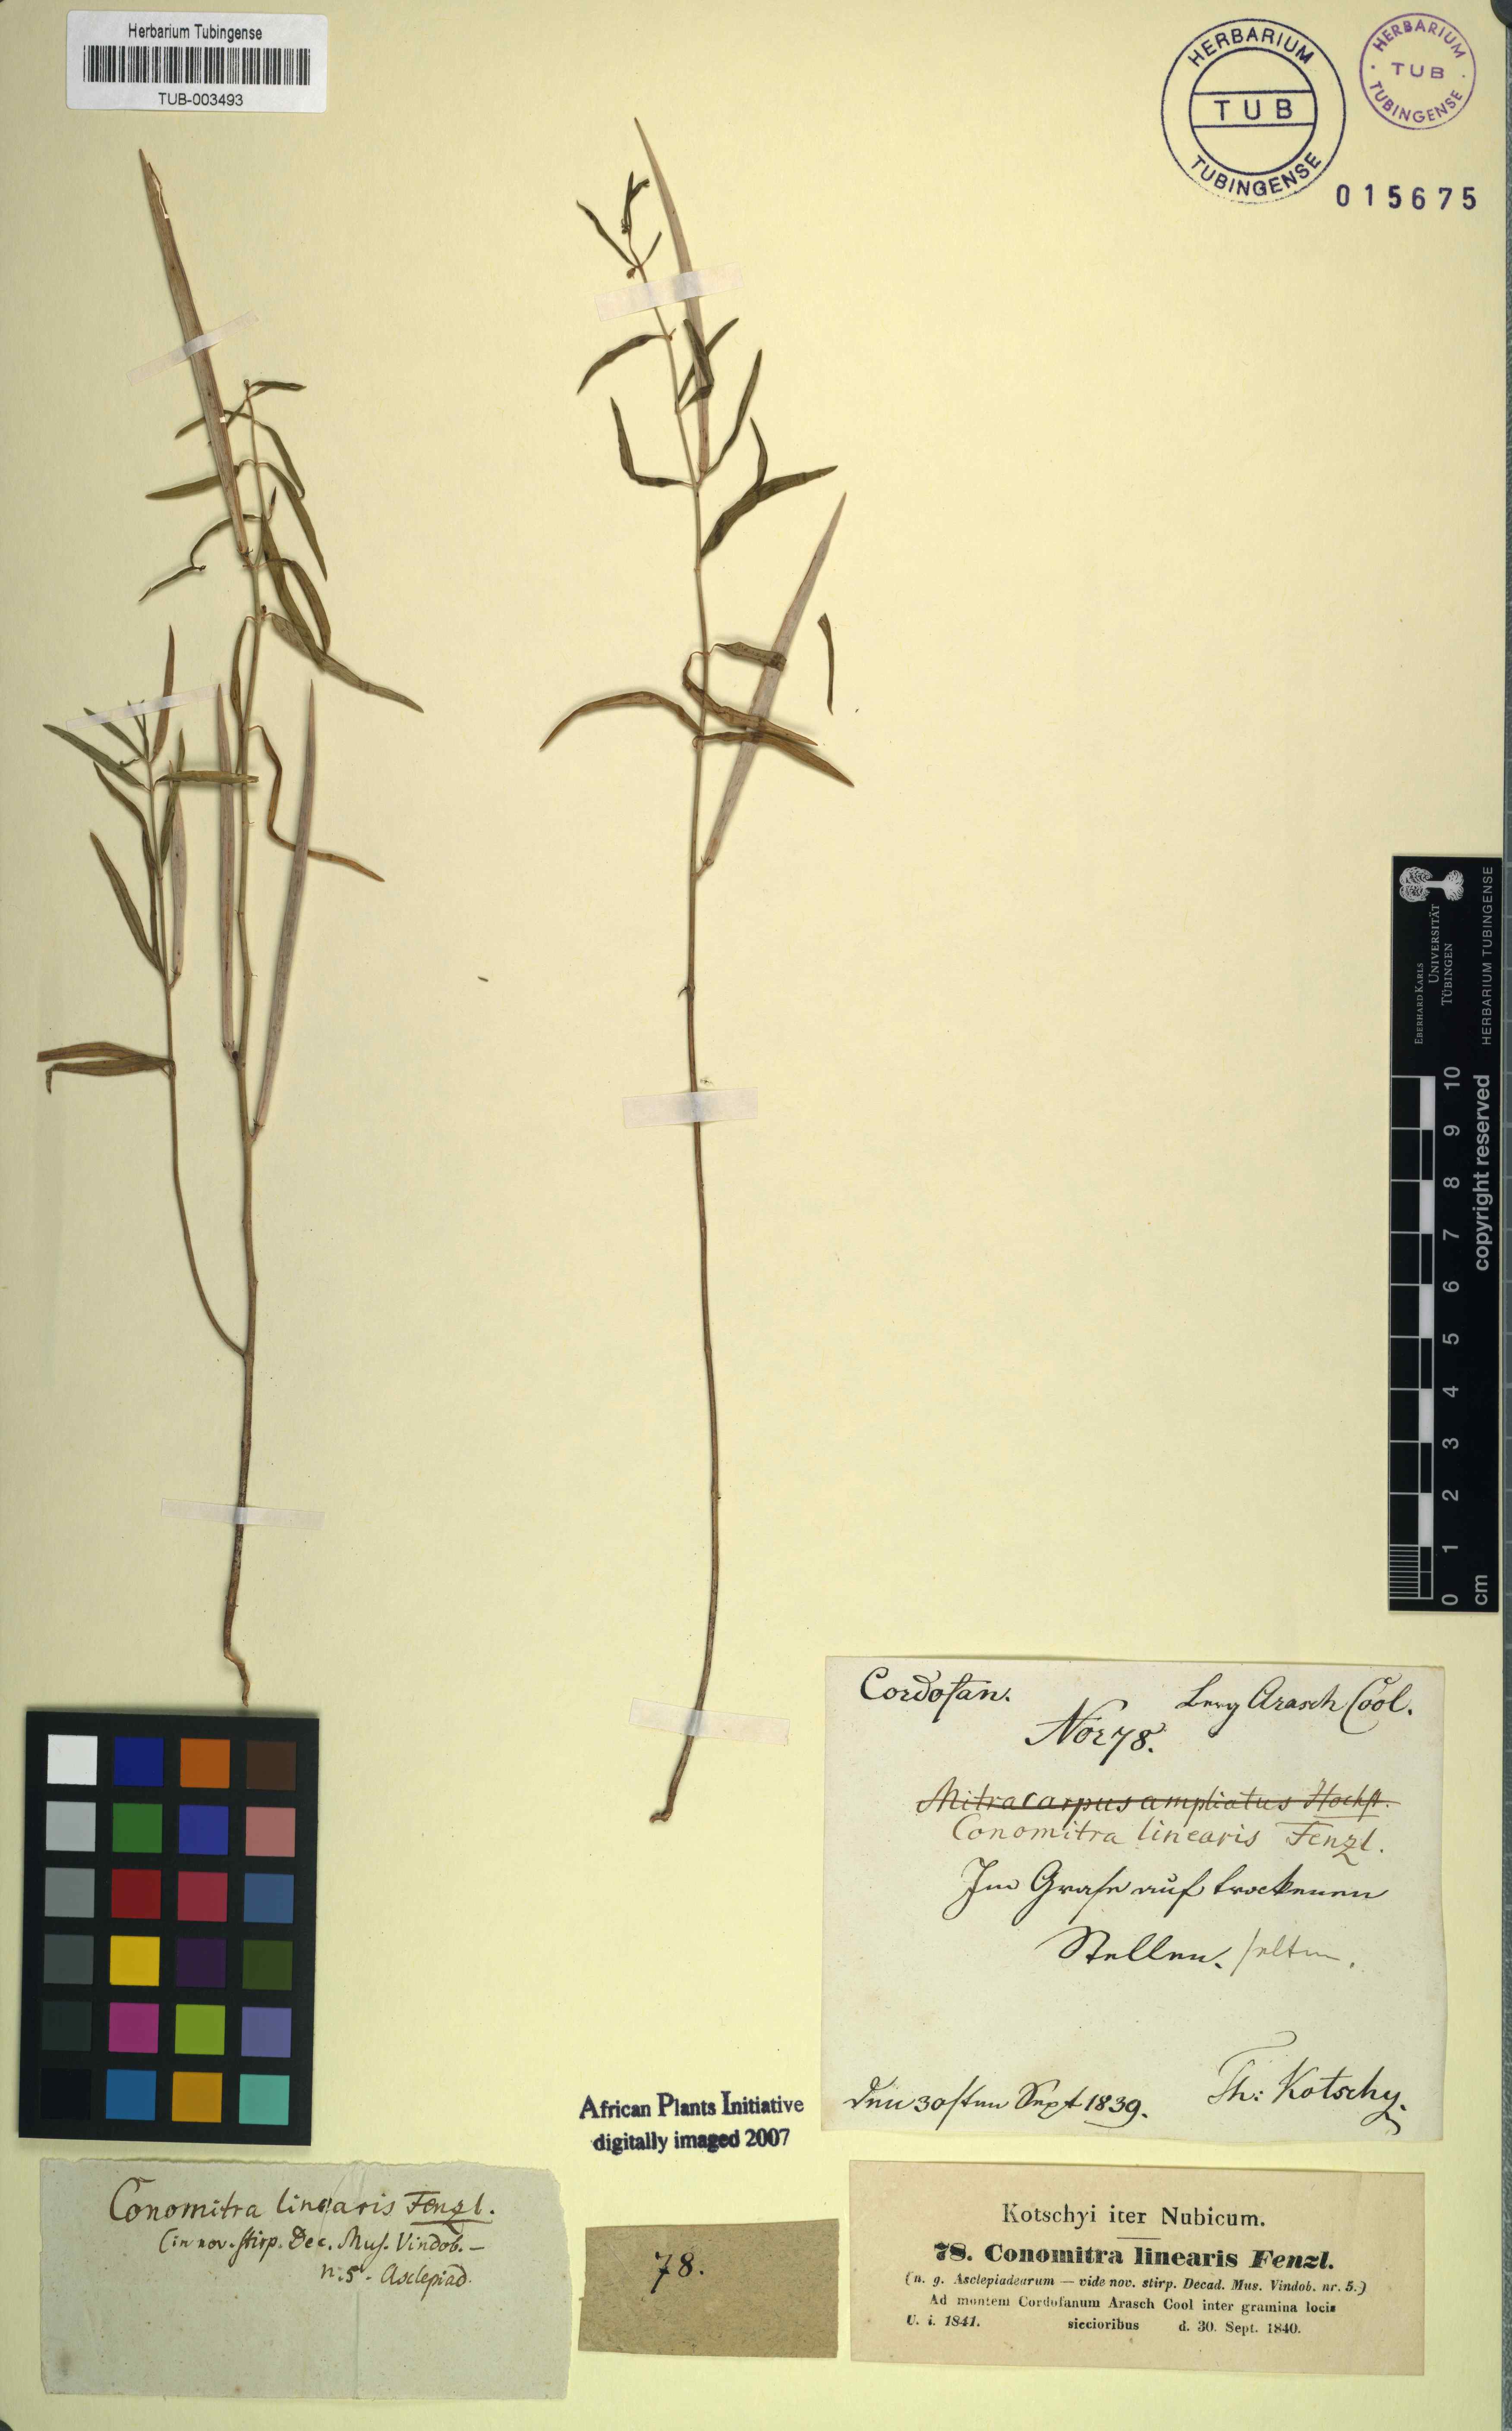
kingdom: Plantae
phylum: Tracheophyta
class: Magnoliopsida
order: Gentianales
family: Apocynaceae
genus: Conomitra
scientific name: Conomitra linearis
